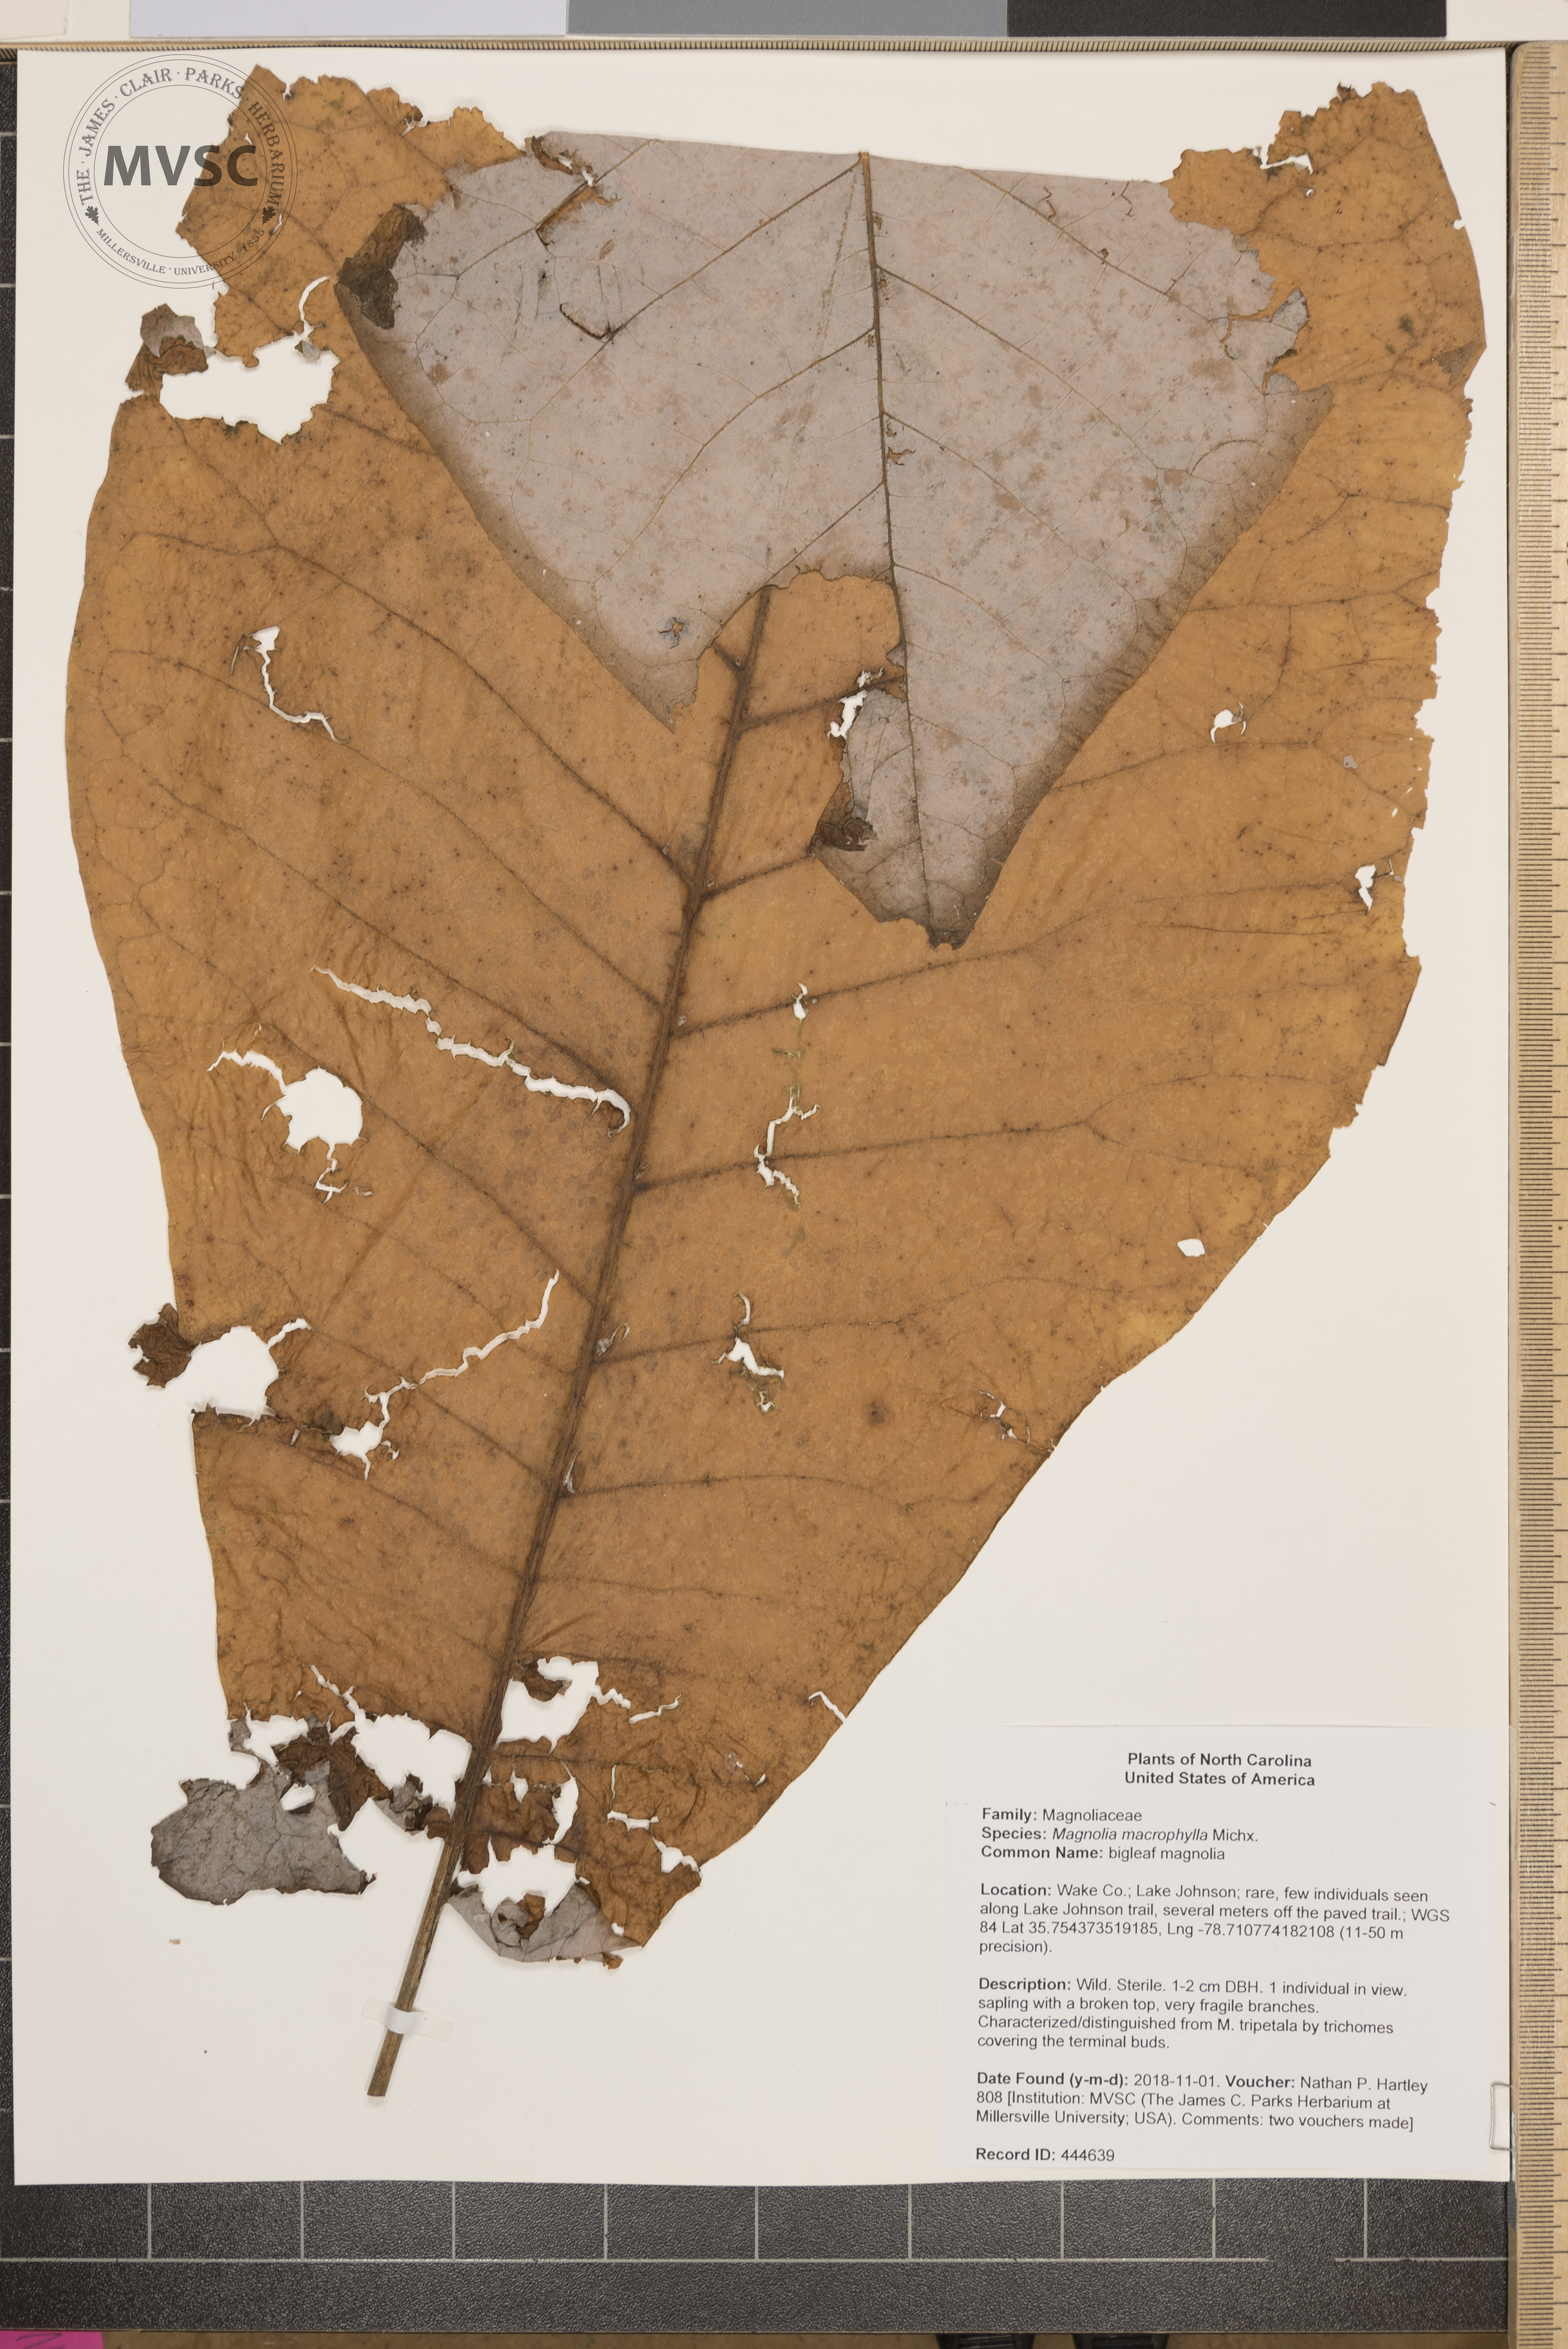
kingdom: Plantae
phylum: Tracheophyta
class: Magnoliopsida
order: Magnoliales
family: Magnoliaceae
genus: Magnolia
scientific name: Magnolia macrophylla
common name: bigleaf magnolia
